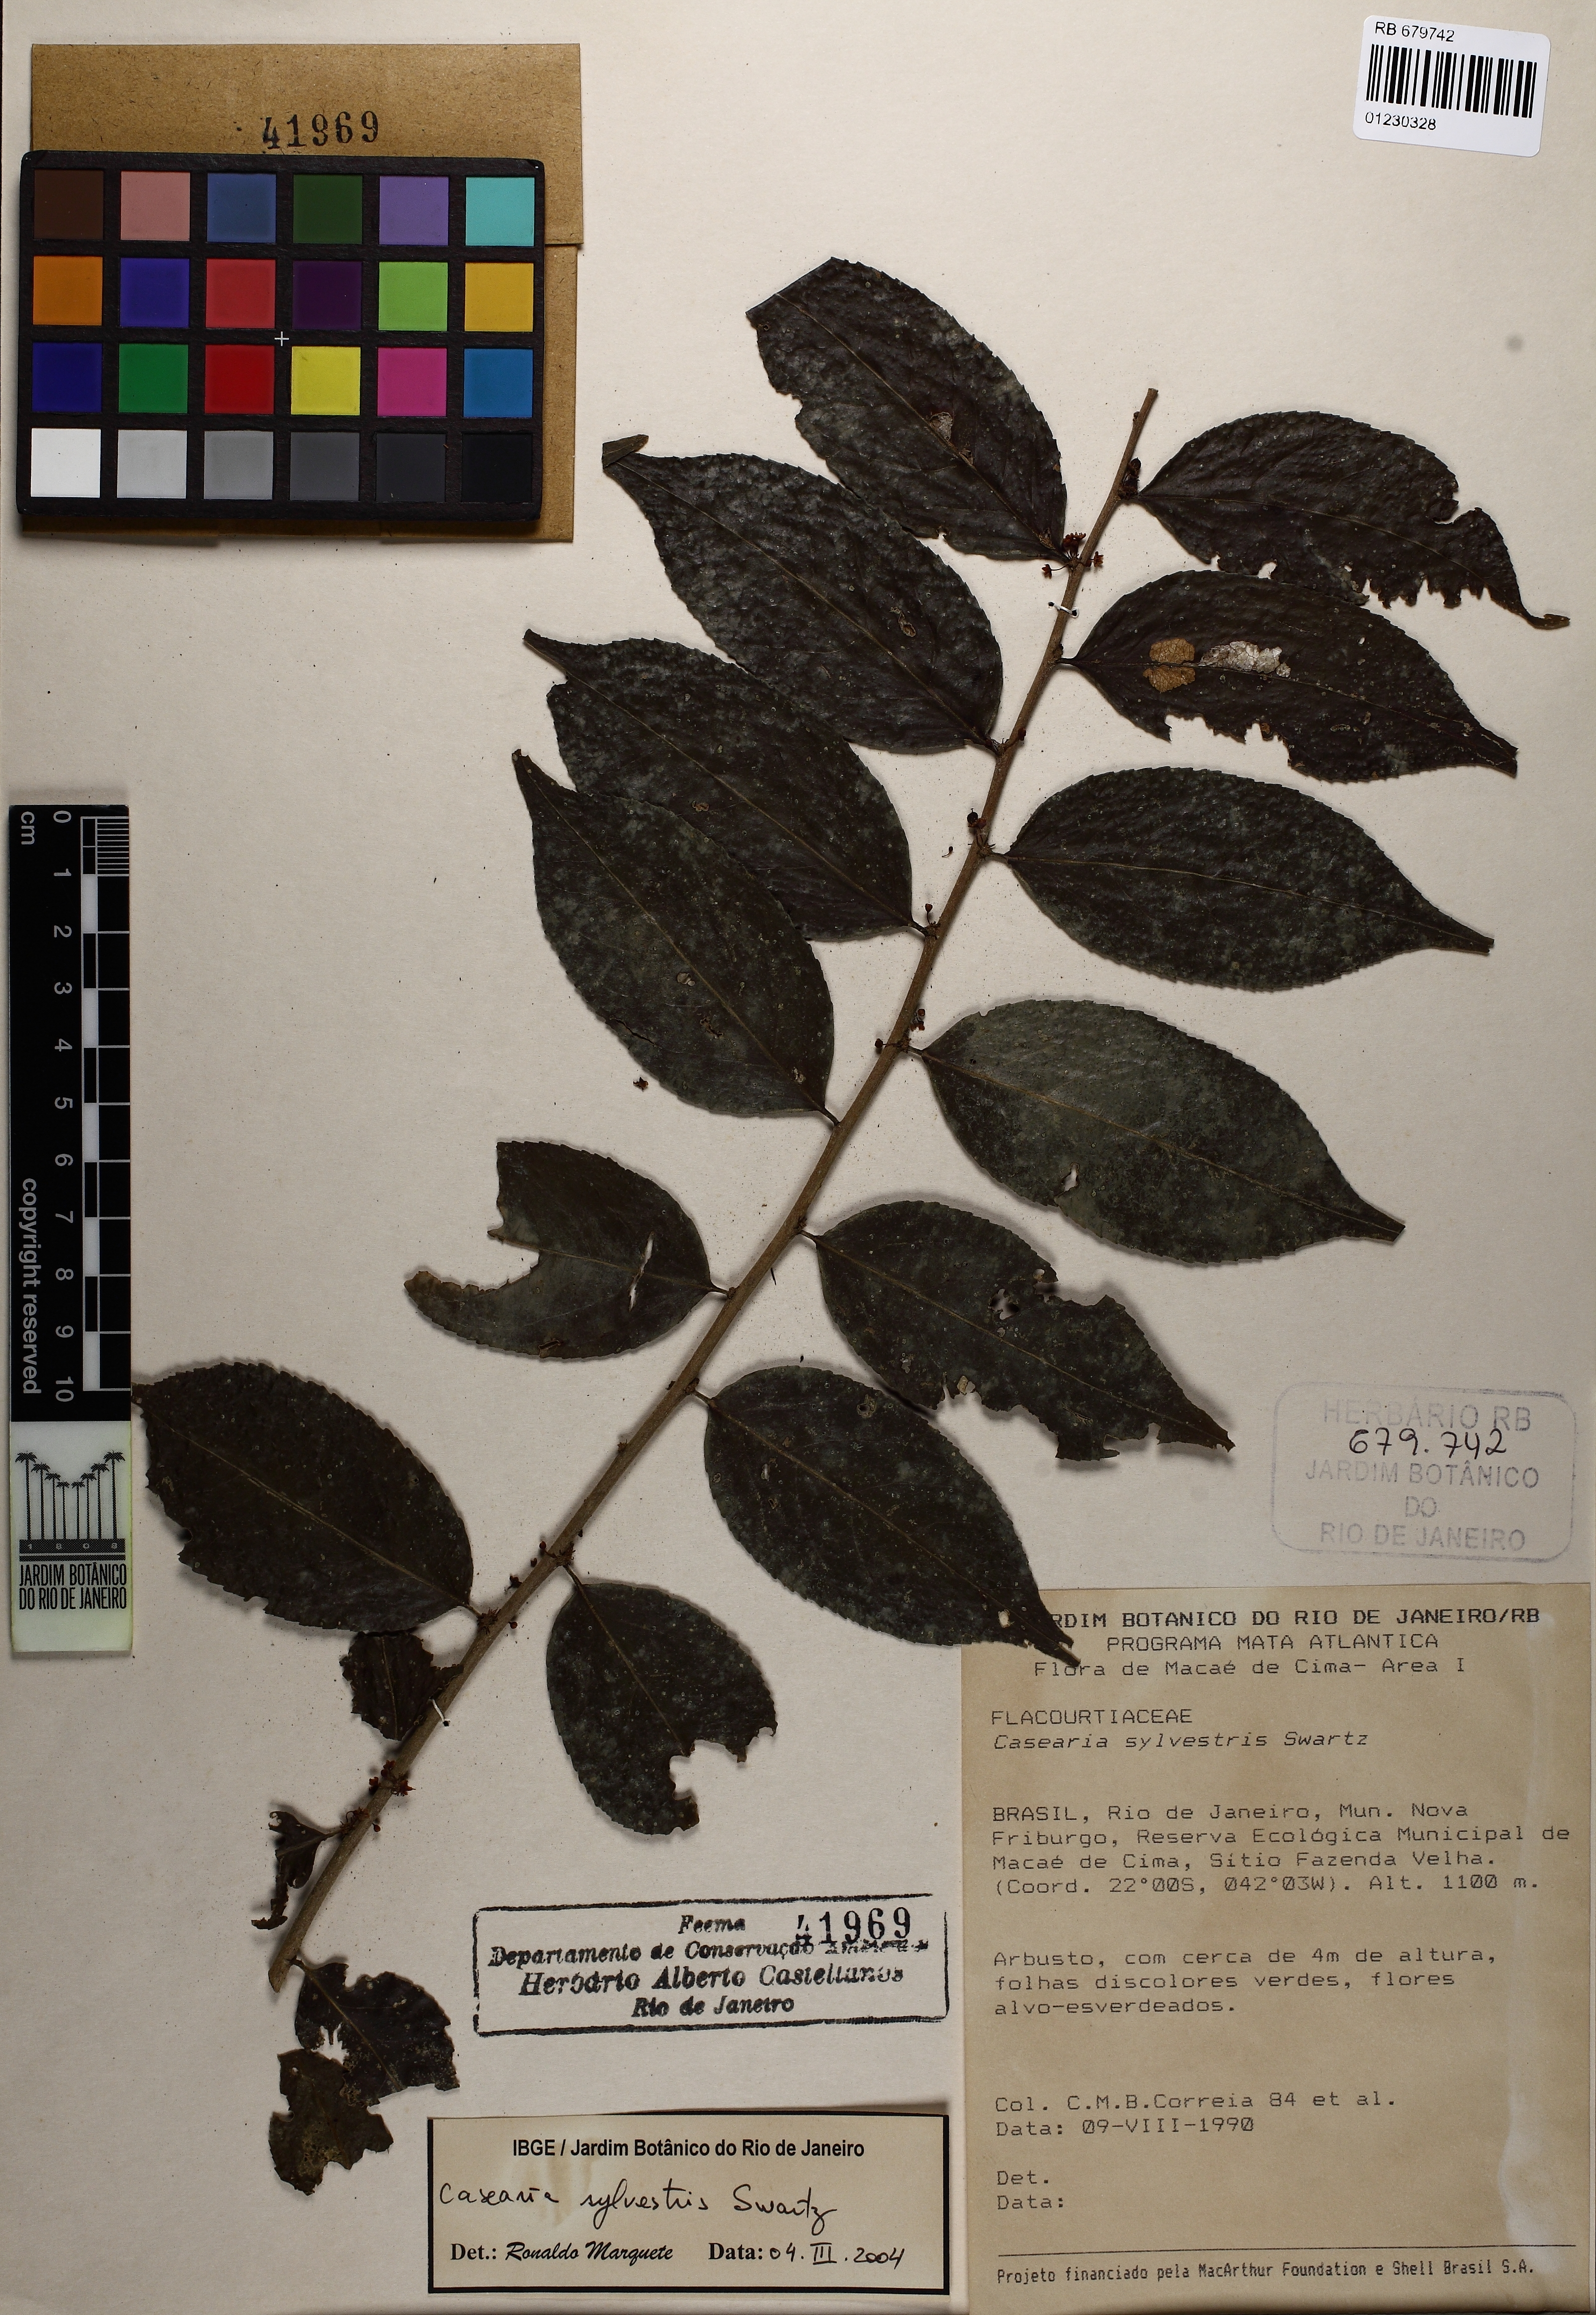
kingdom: Plantae
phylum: Tracheophyta
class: Magnoliopsida
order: Malpighiales
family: Salicaceae
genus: Casearia
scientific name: Casearia sylvestris
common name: Wild sage
